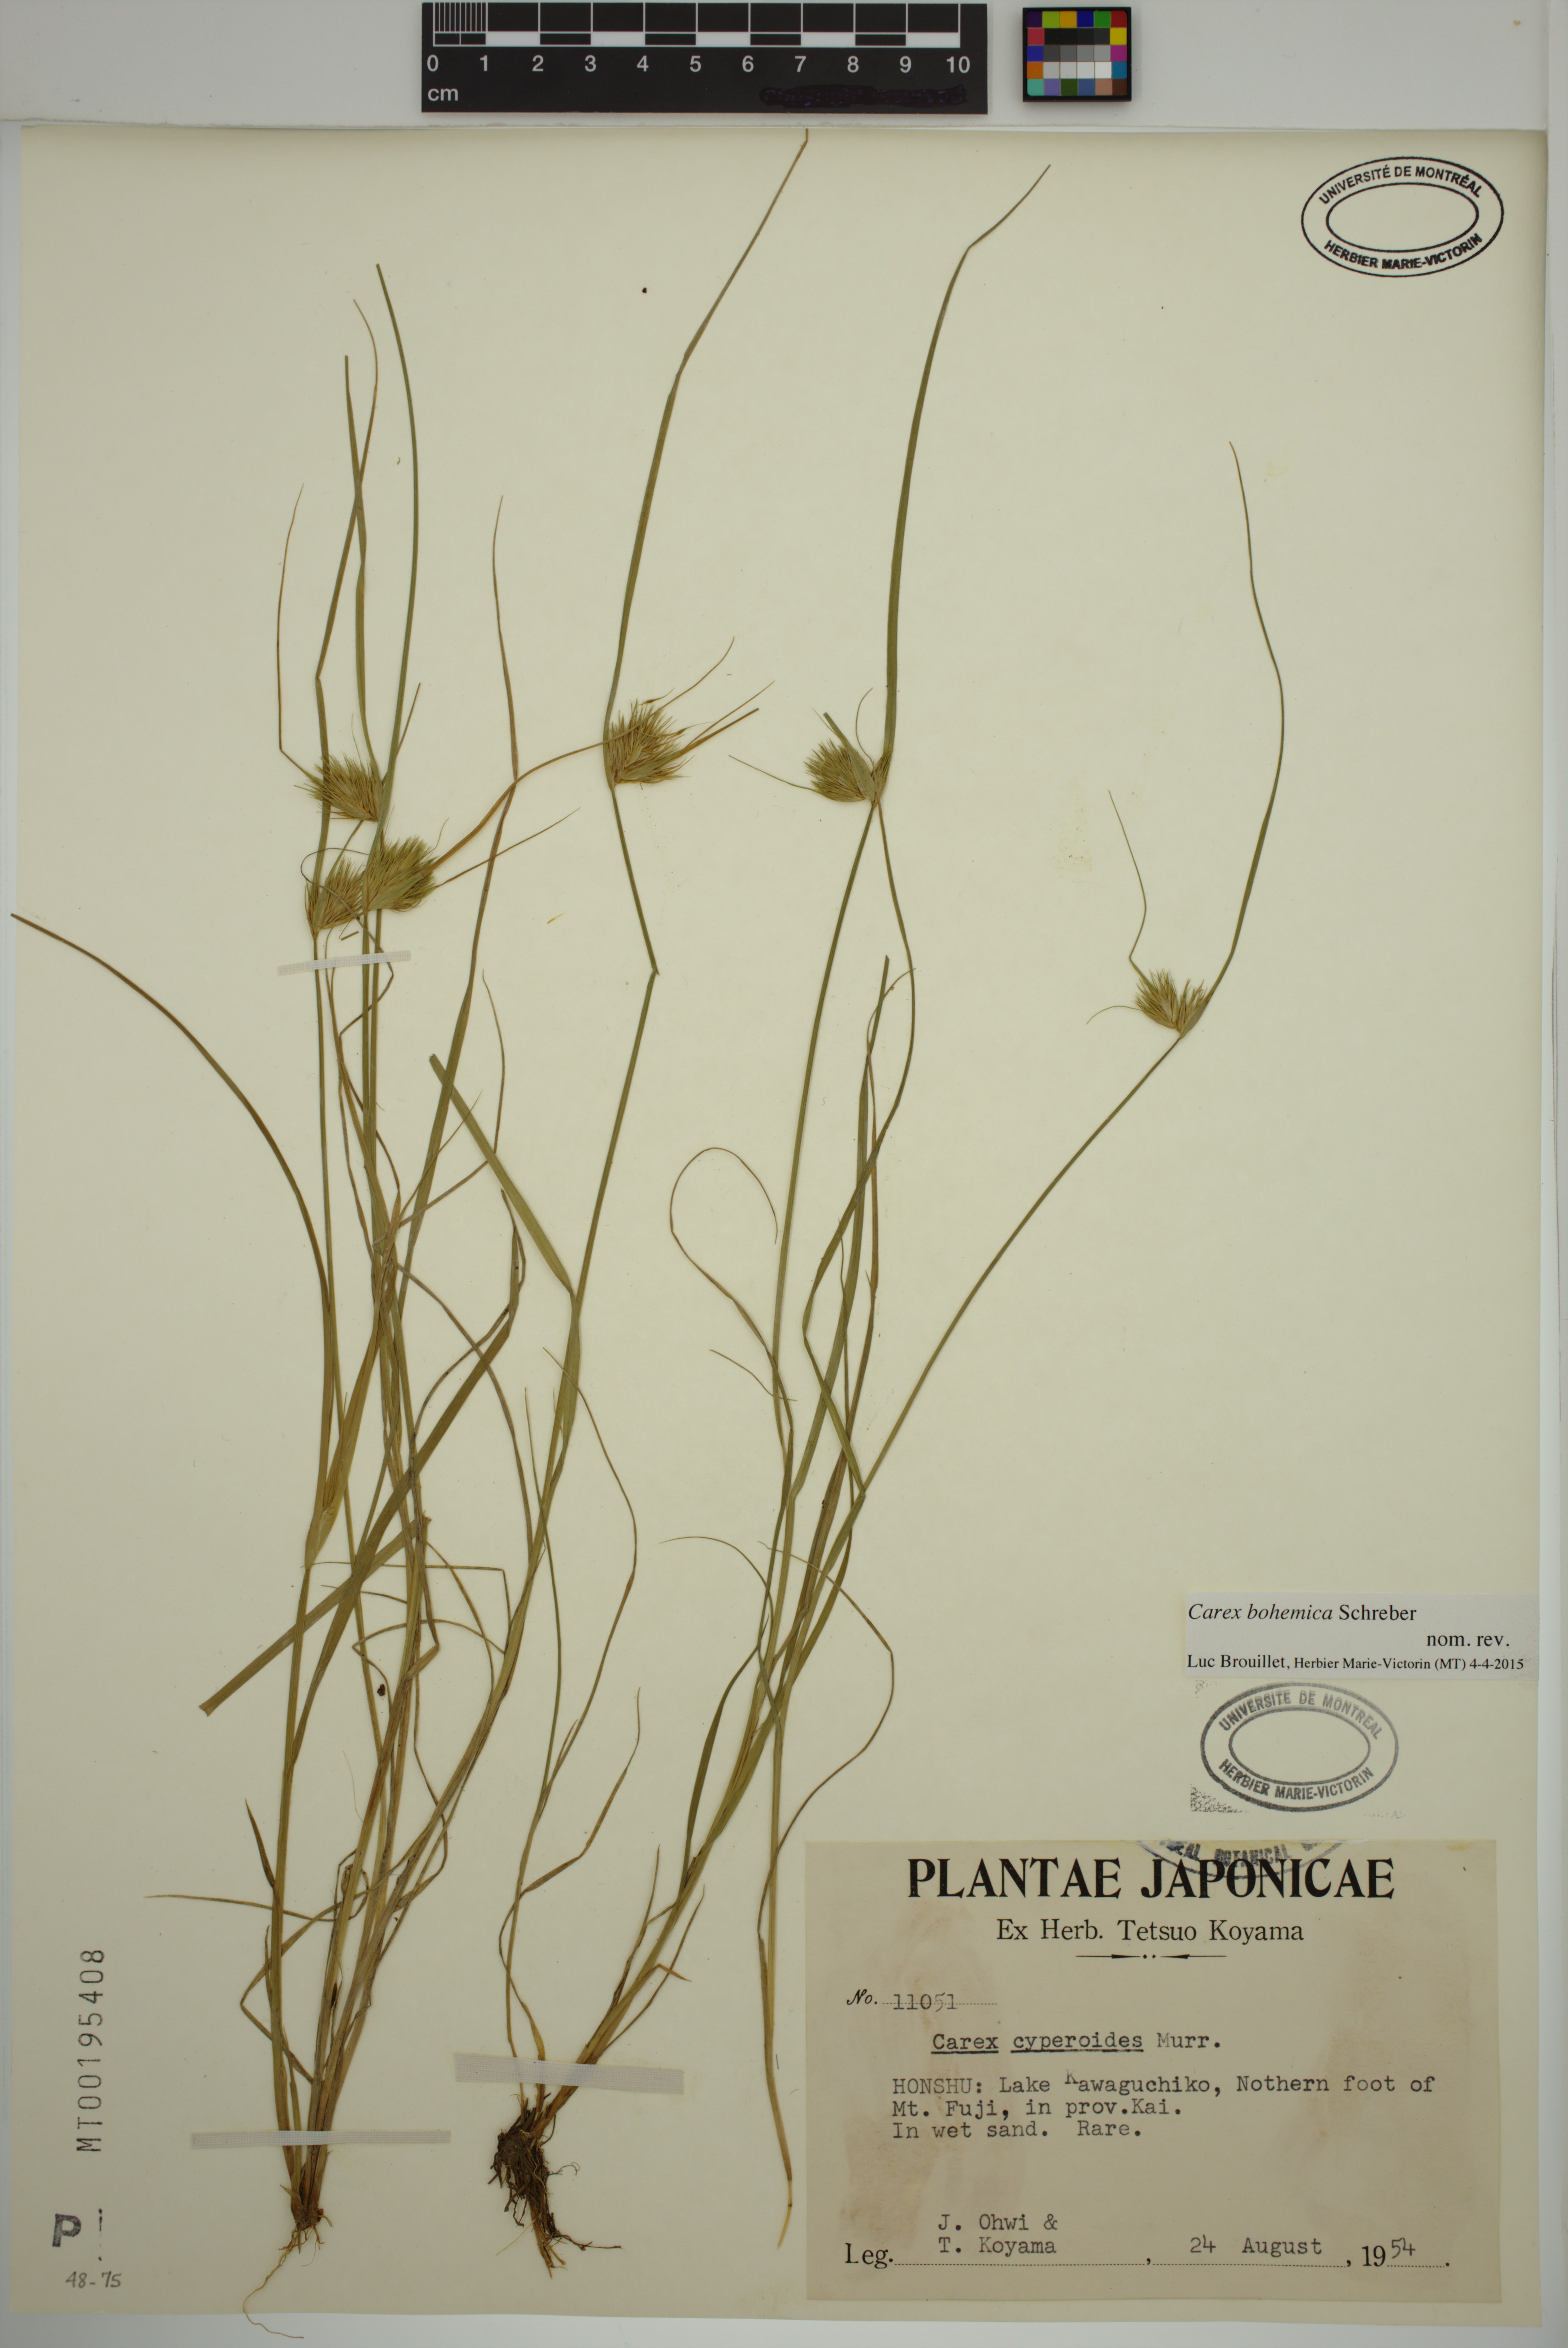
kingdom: Plantae
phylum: Tracheophyta
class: Liliopsida
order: Poales
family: Cyperaceae
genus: Carex
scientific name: Carex bohemica
